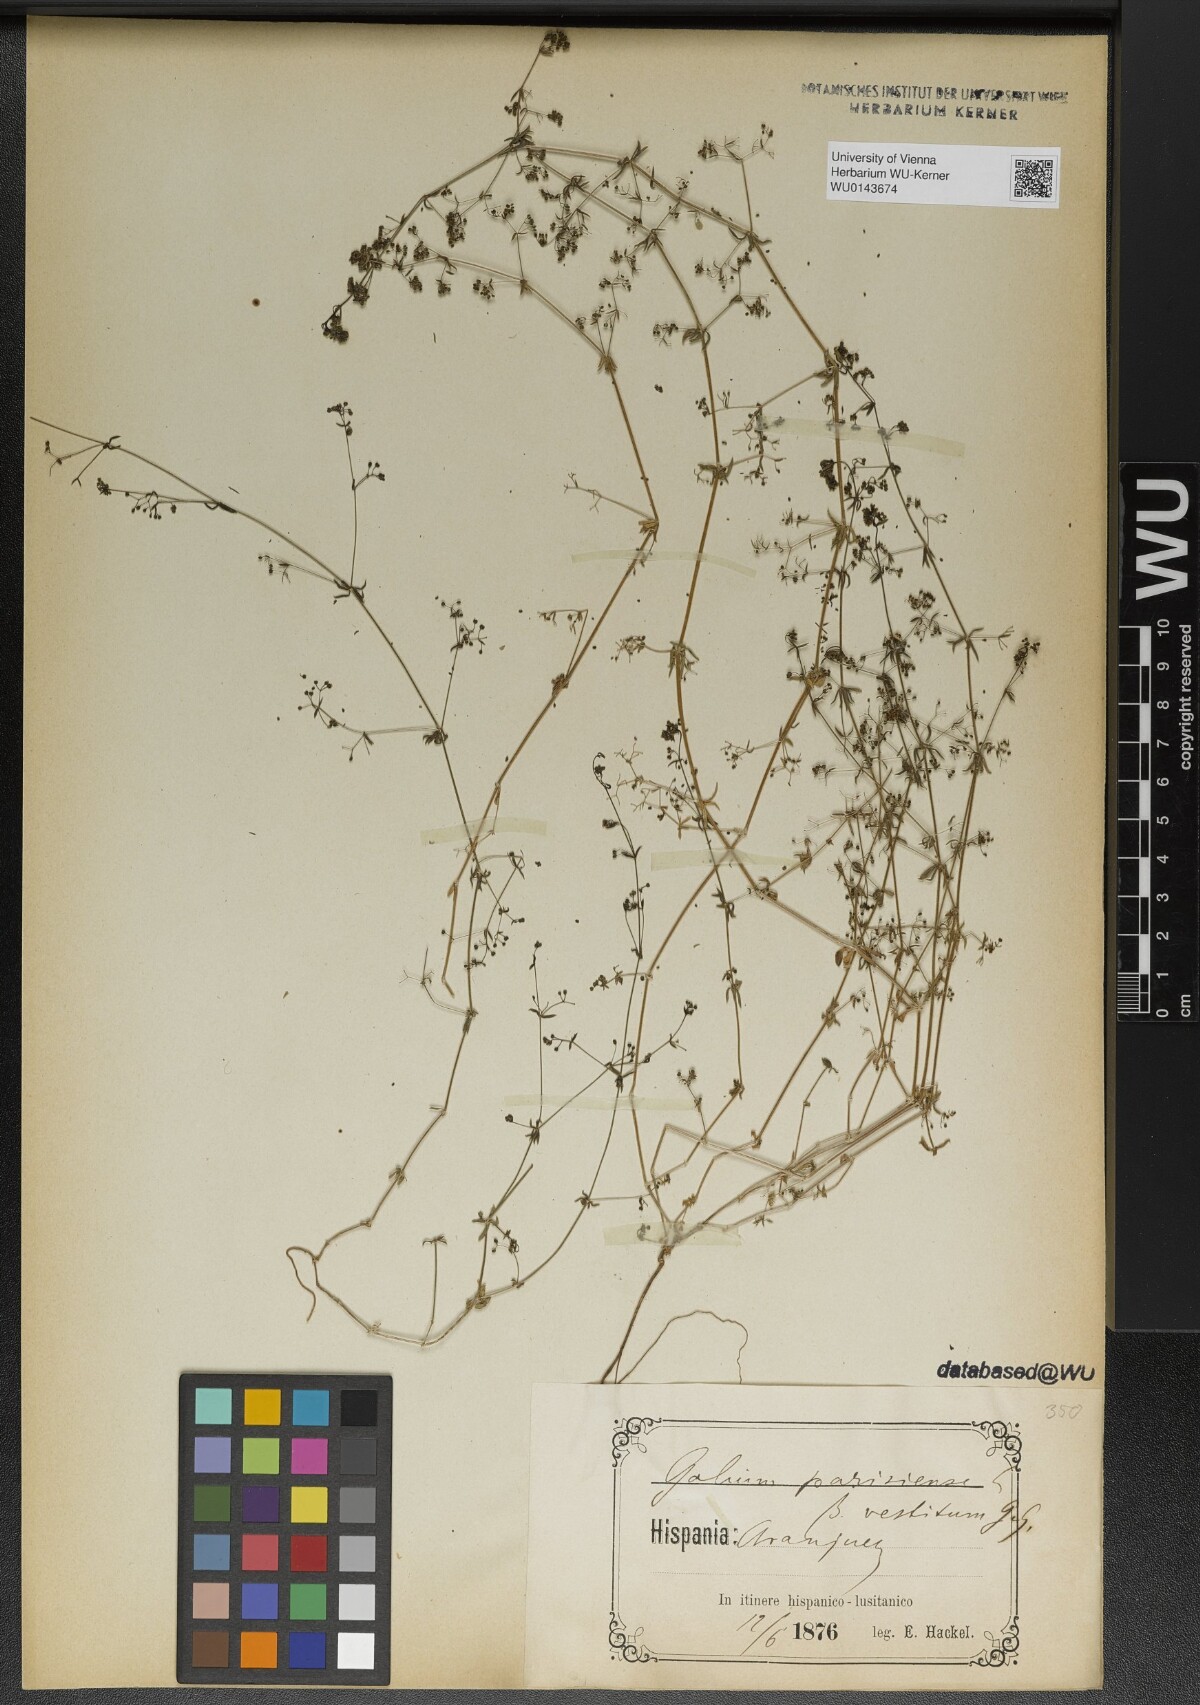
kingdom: Plantae
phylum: Tracheophyta
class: Magnoliopsida
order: Gentianales
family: Rubiaceae
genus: Galium
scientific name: Galium parisiense
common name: Wall bedstraw
